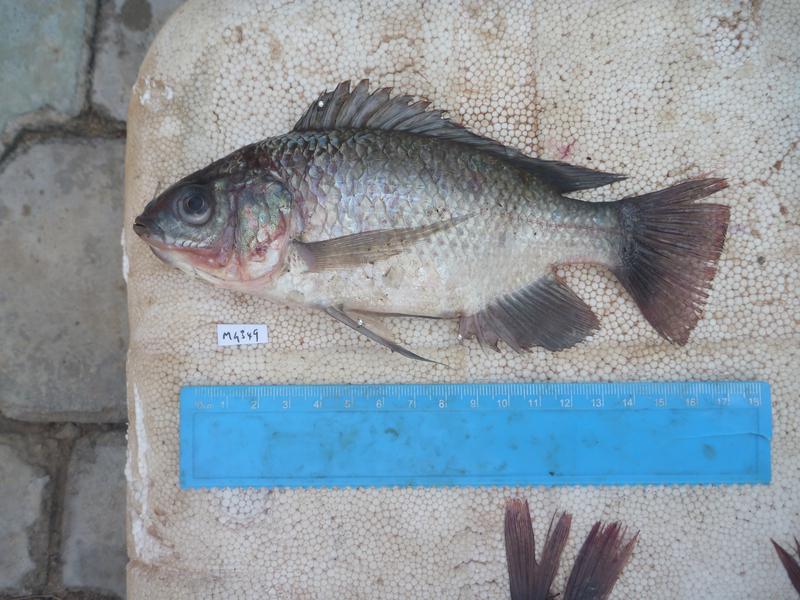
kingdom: Animalia
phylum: Chordata
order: Perciformes
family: Cichlidae
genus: Oreochromis
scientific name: Oreochromis esculentus
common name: Carp
